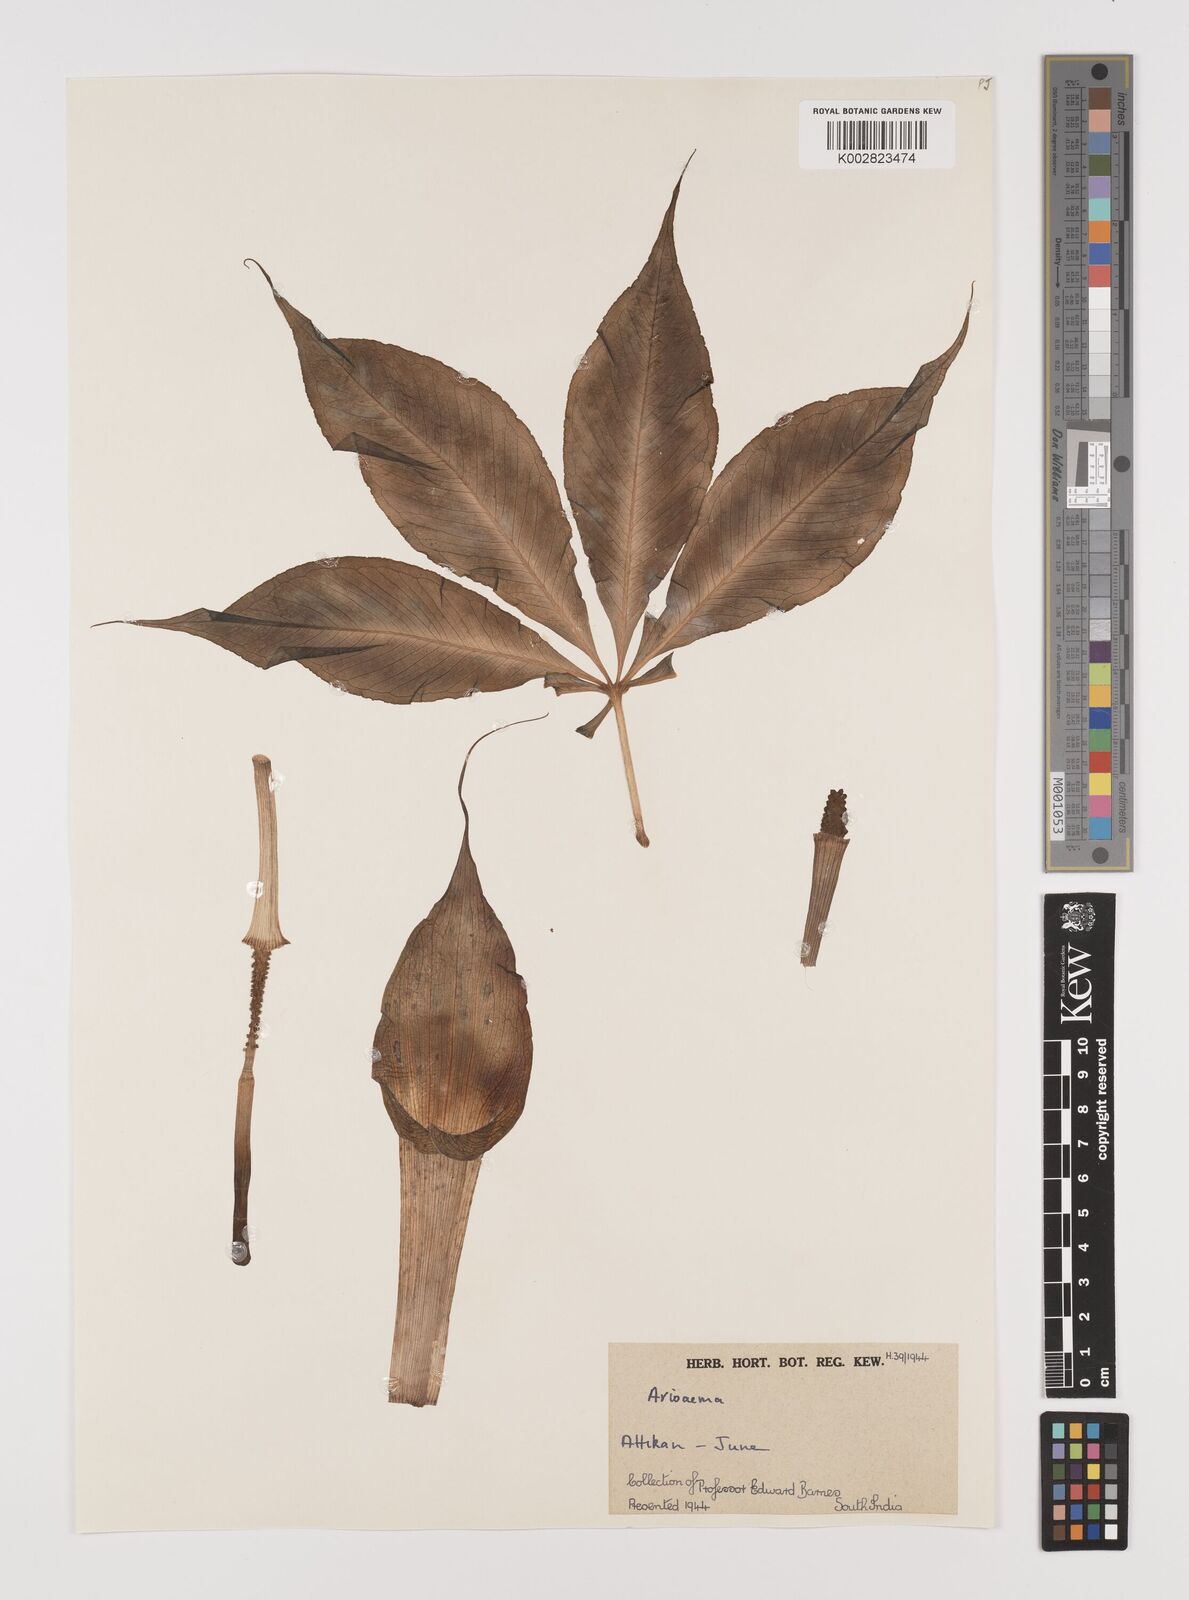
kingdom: Plantae
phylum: Tracheophyta
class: Liliopsida
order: Alismatales
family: Araceae
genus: Arisaema
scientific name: Arisaema
